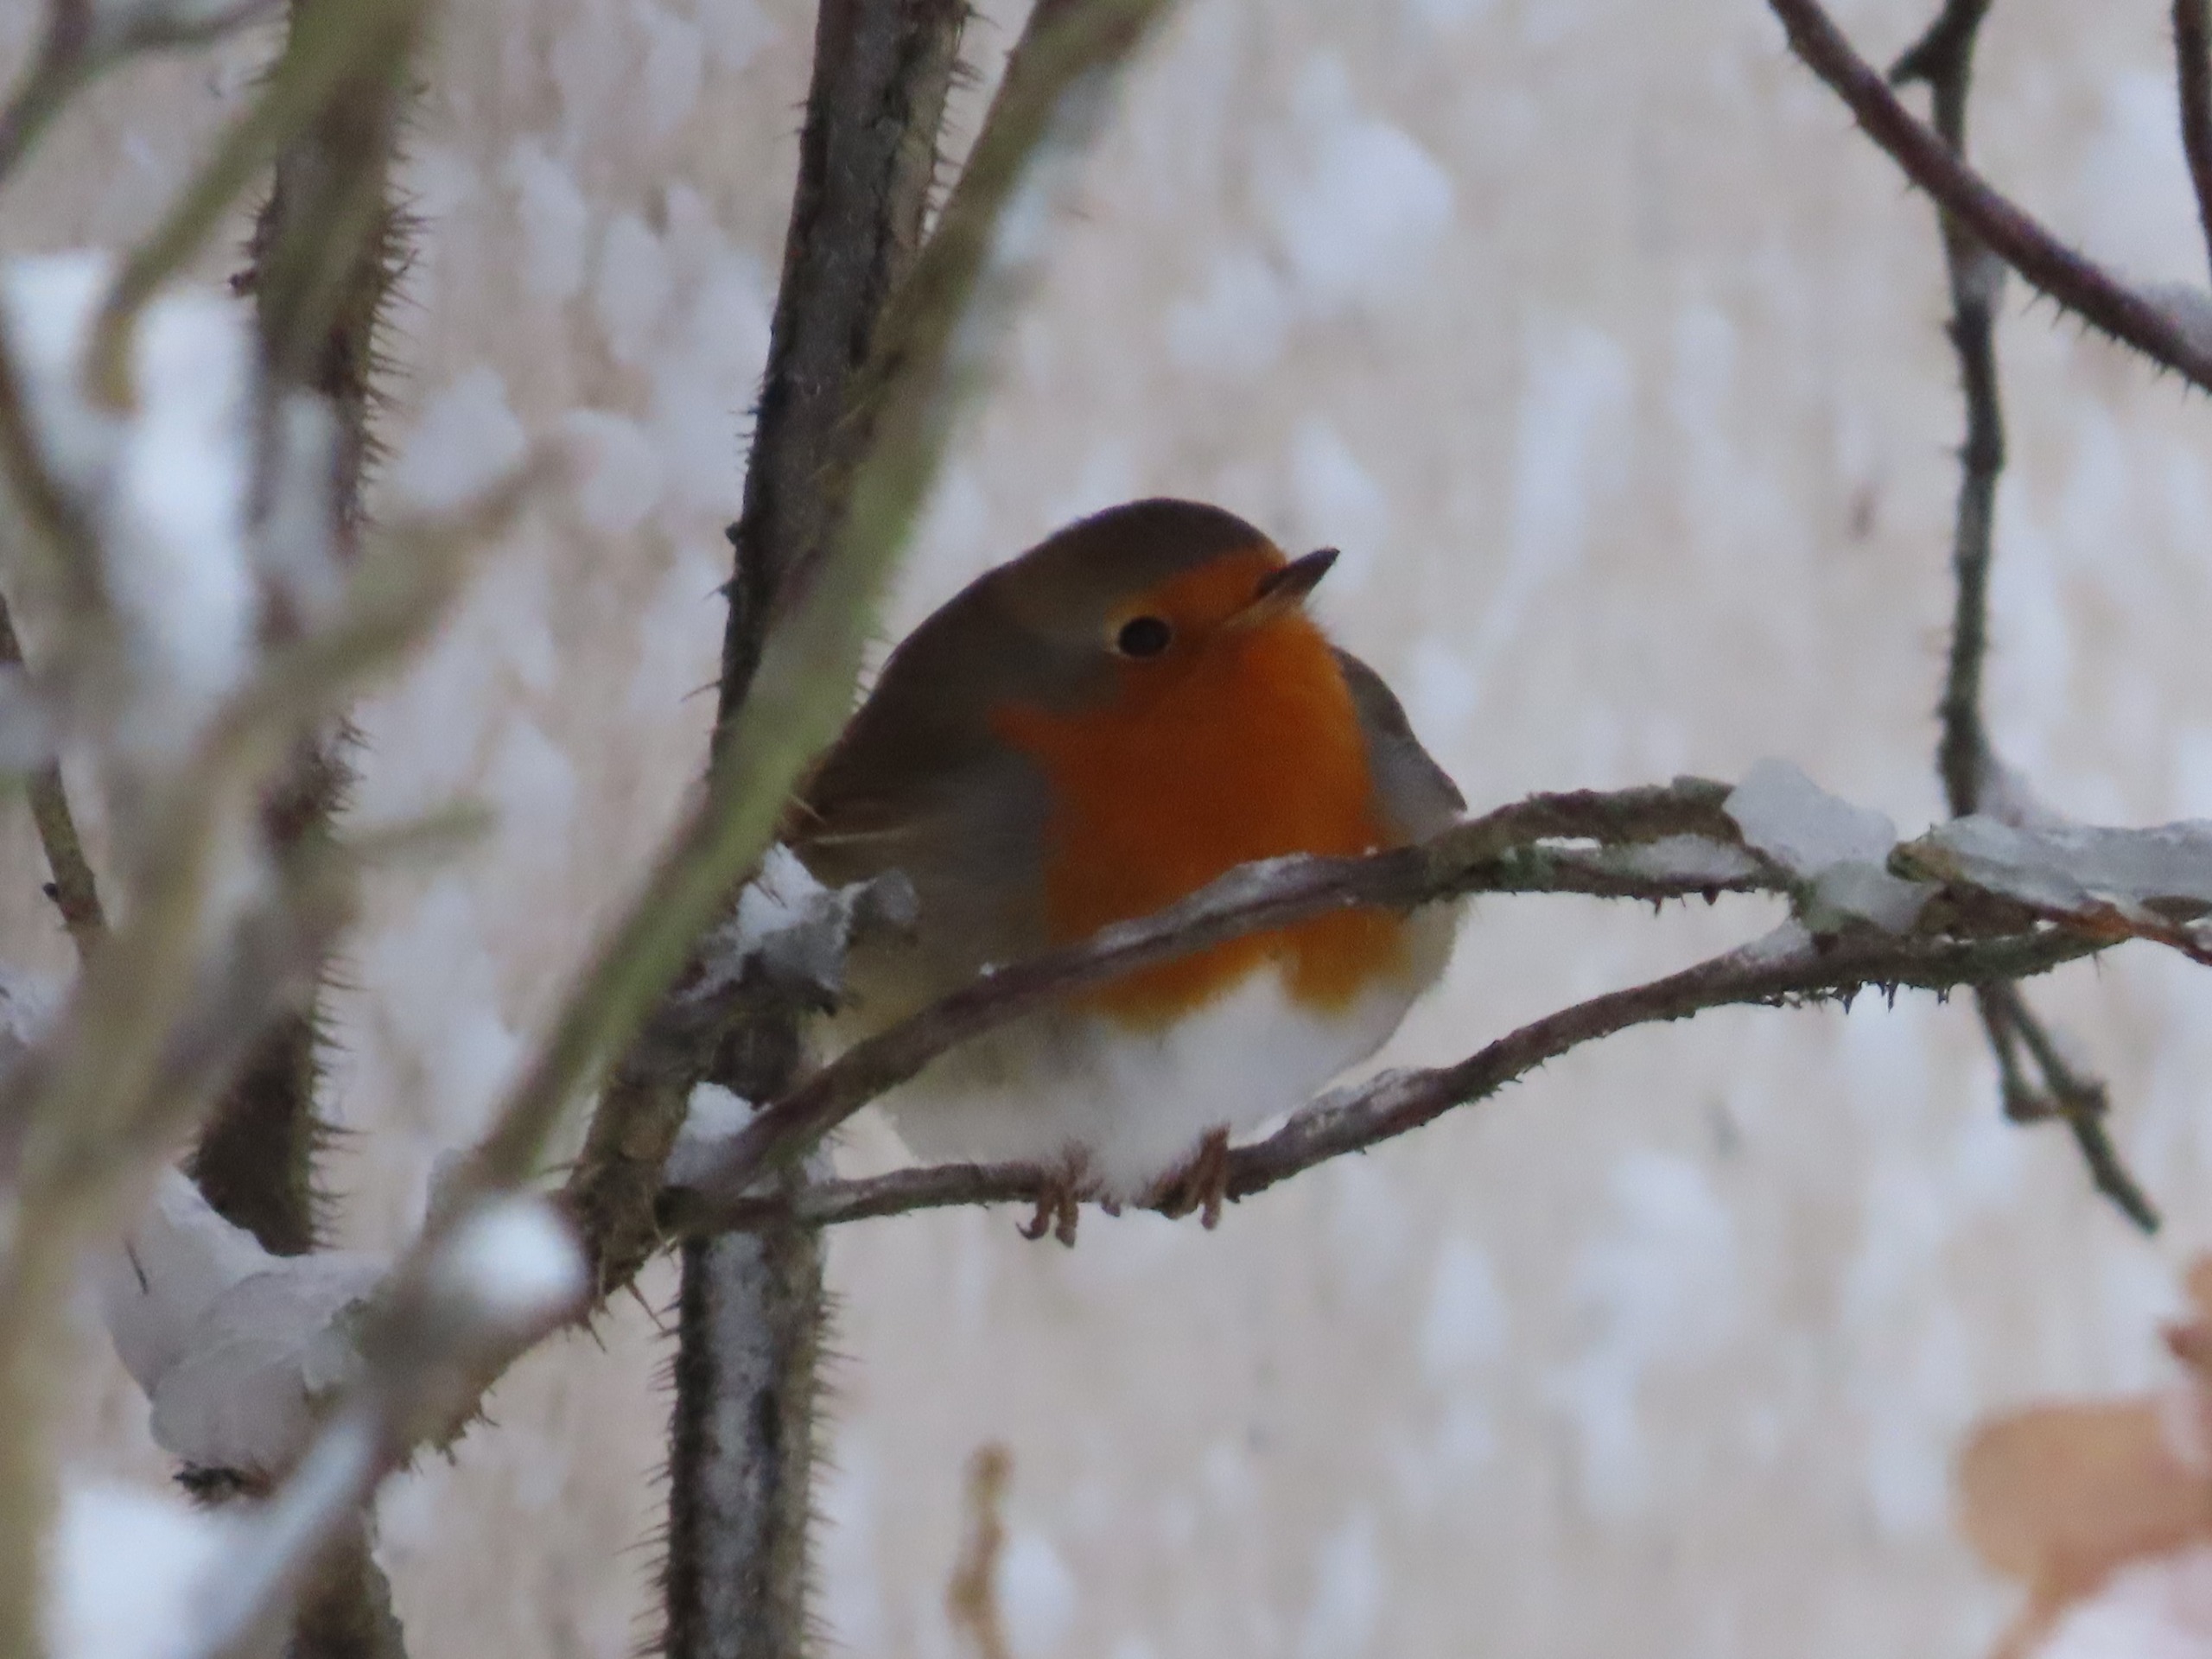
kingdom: Animalia
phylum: Chordata
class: Aves
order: Passeriformes
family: Muscicapidae
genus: Erithacus
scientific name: Erithacus rubecula
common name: Rødhals/rødkælk
